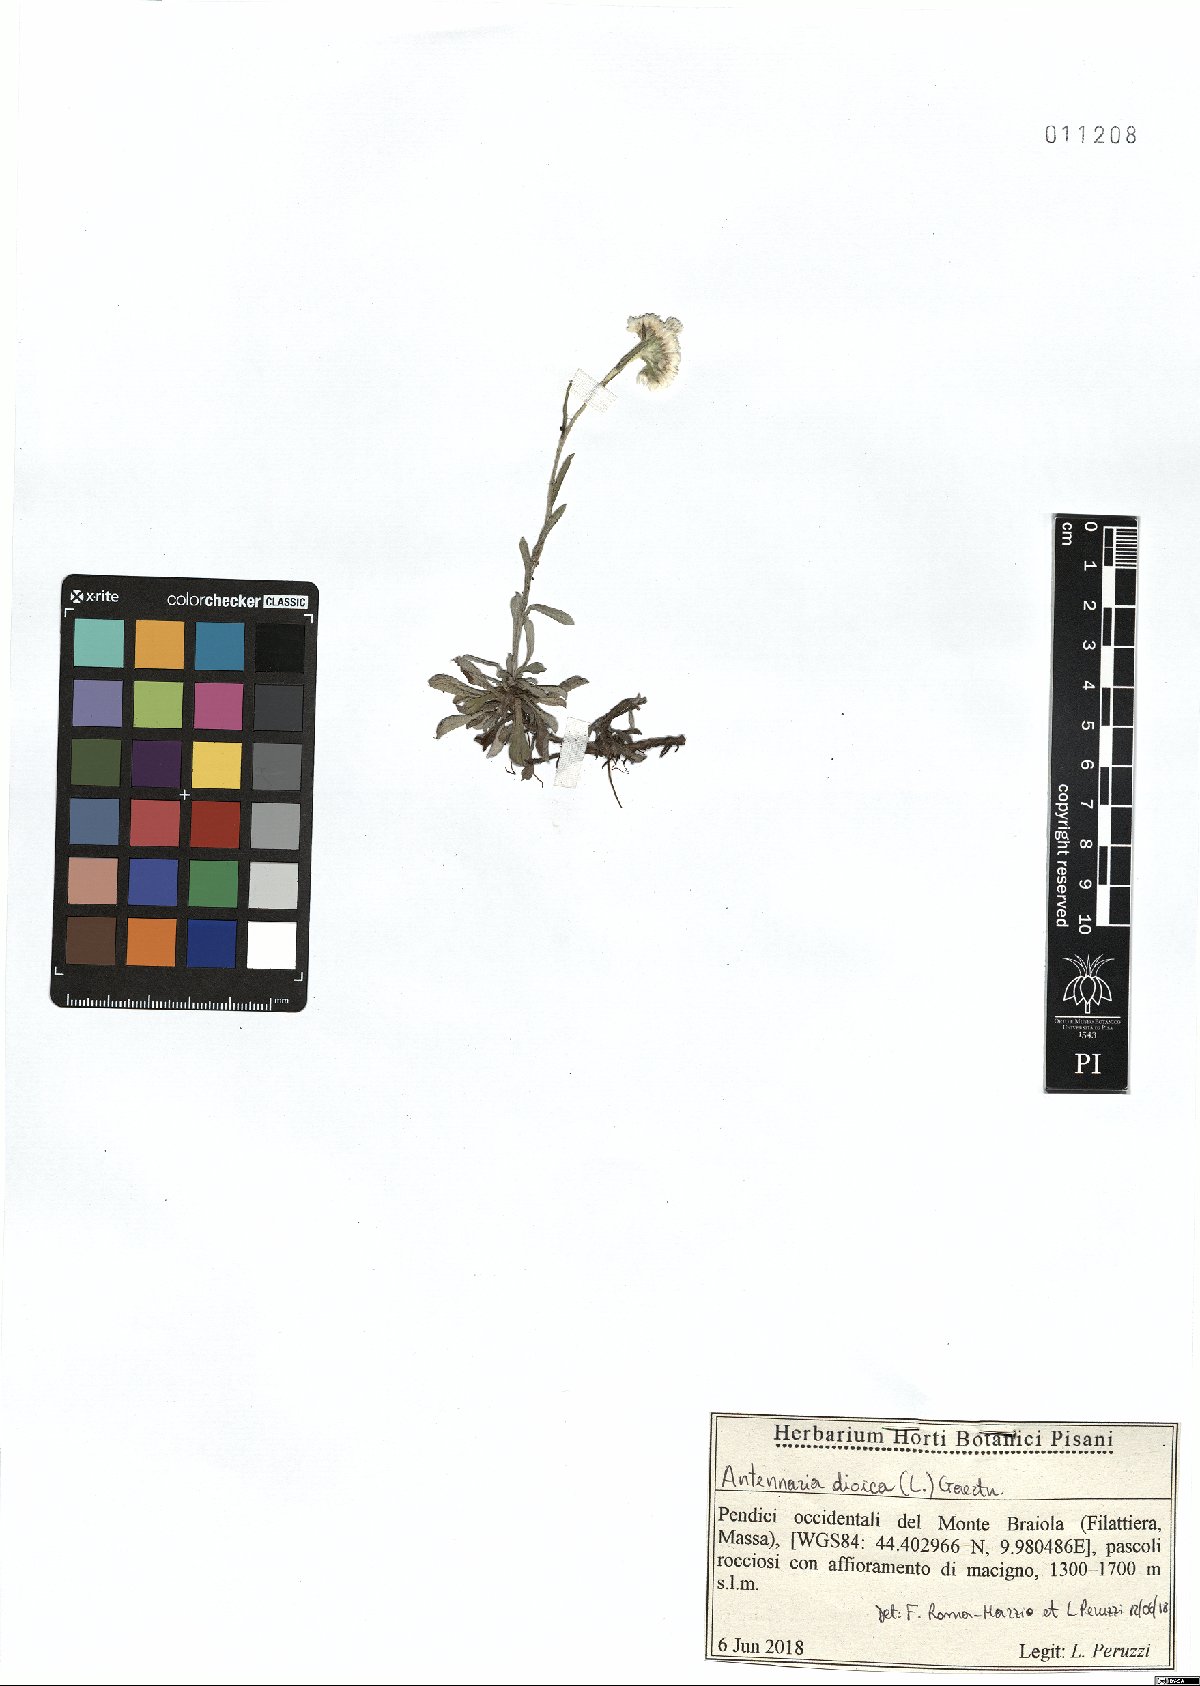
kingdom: Plantae
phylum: Tracheophyta
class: Magnoliopsida
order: Asterales
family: Asteraceae
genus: Antennaria
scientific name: Antennaria dioica
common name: Mountain everlasting
